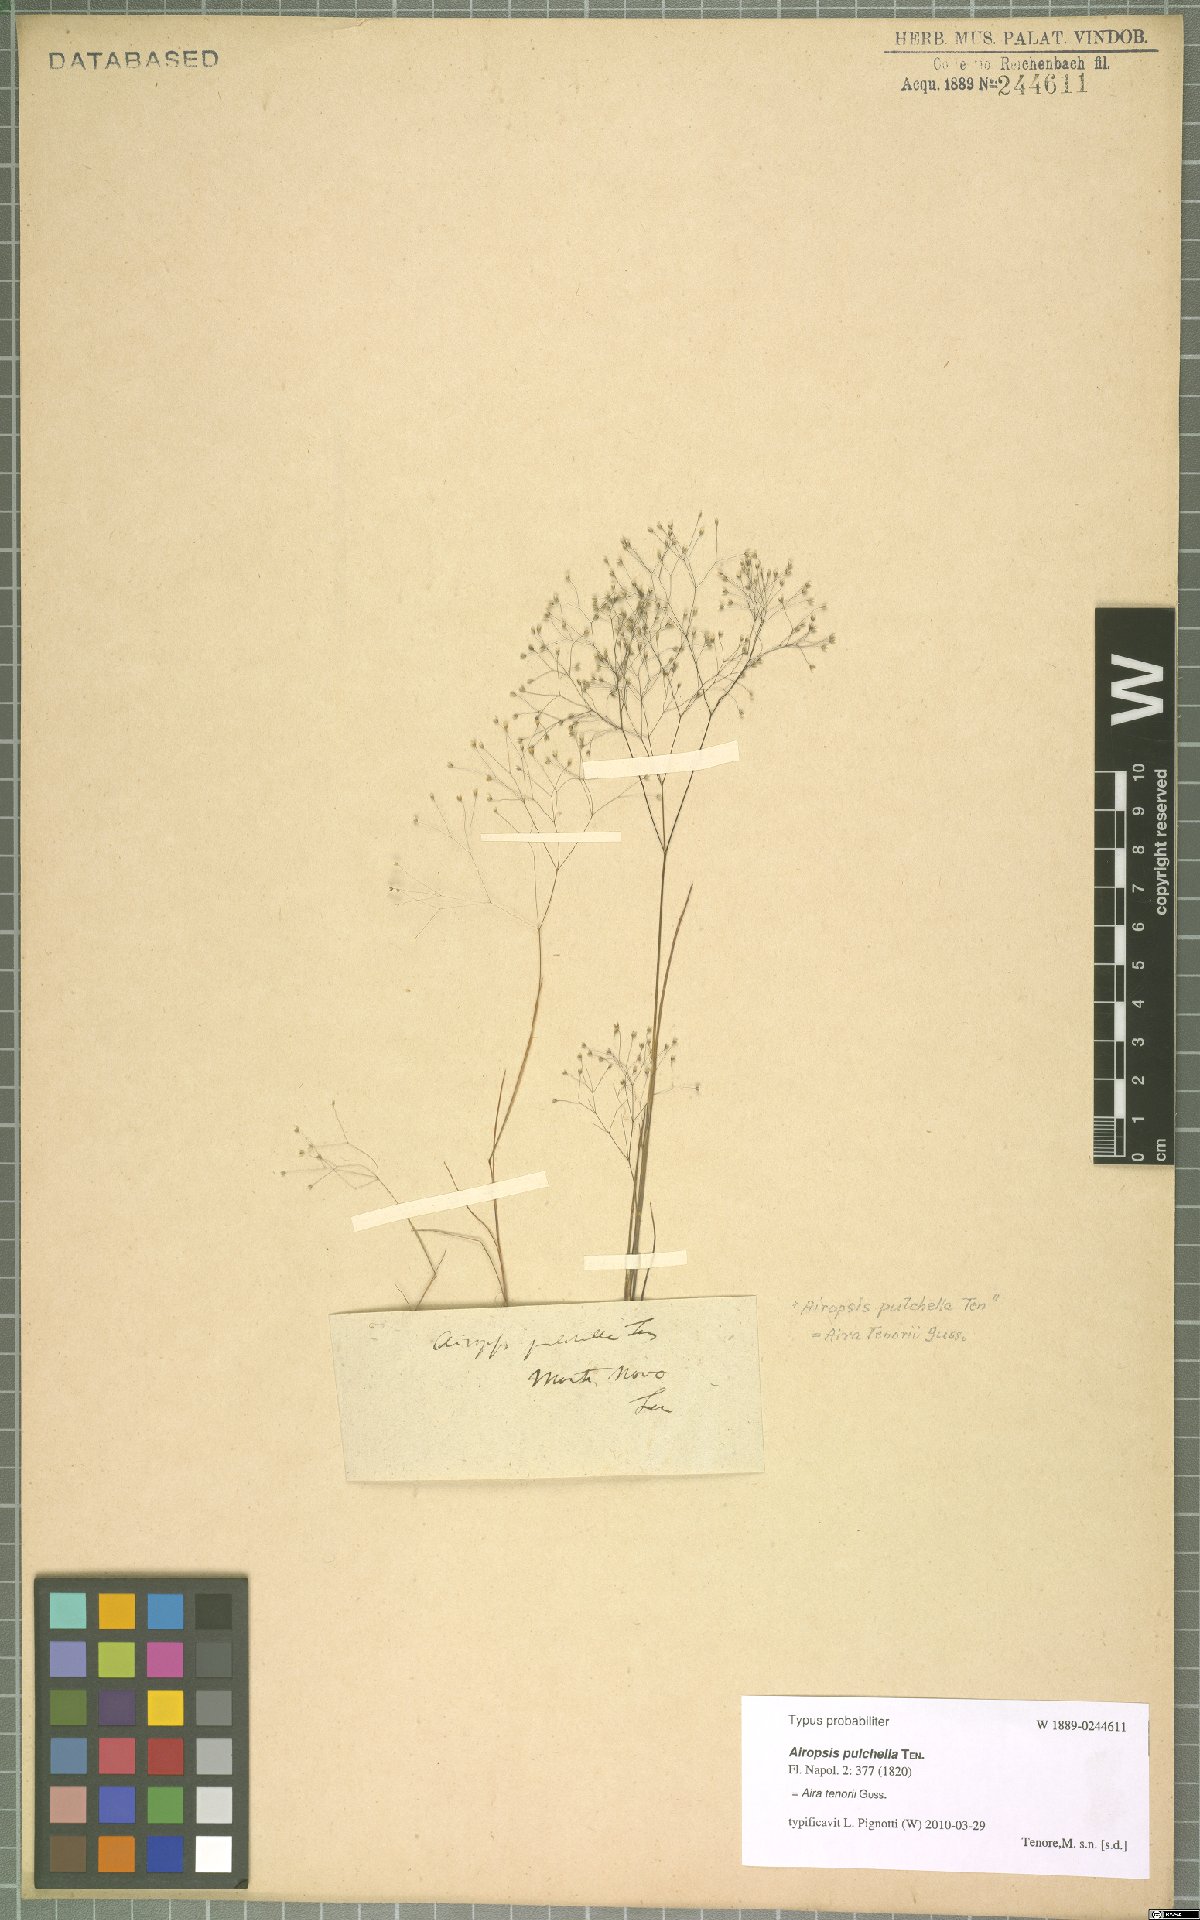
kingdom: Plantae
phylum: Tracheophyta
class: Liliopsida
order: Poales
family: Poaceae
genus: Aira
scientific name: Aira tenorei
